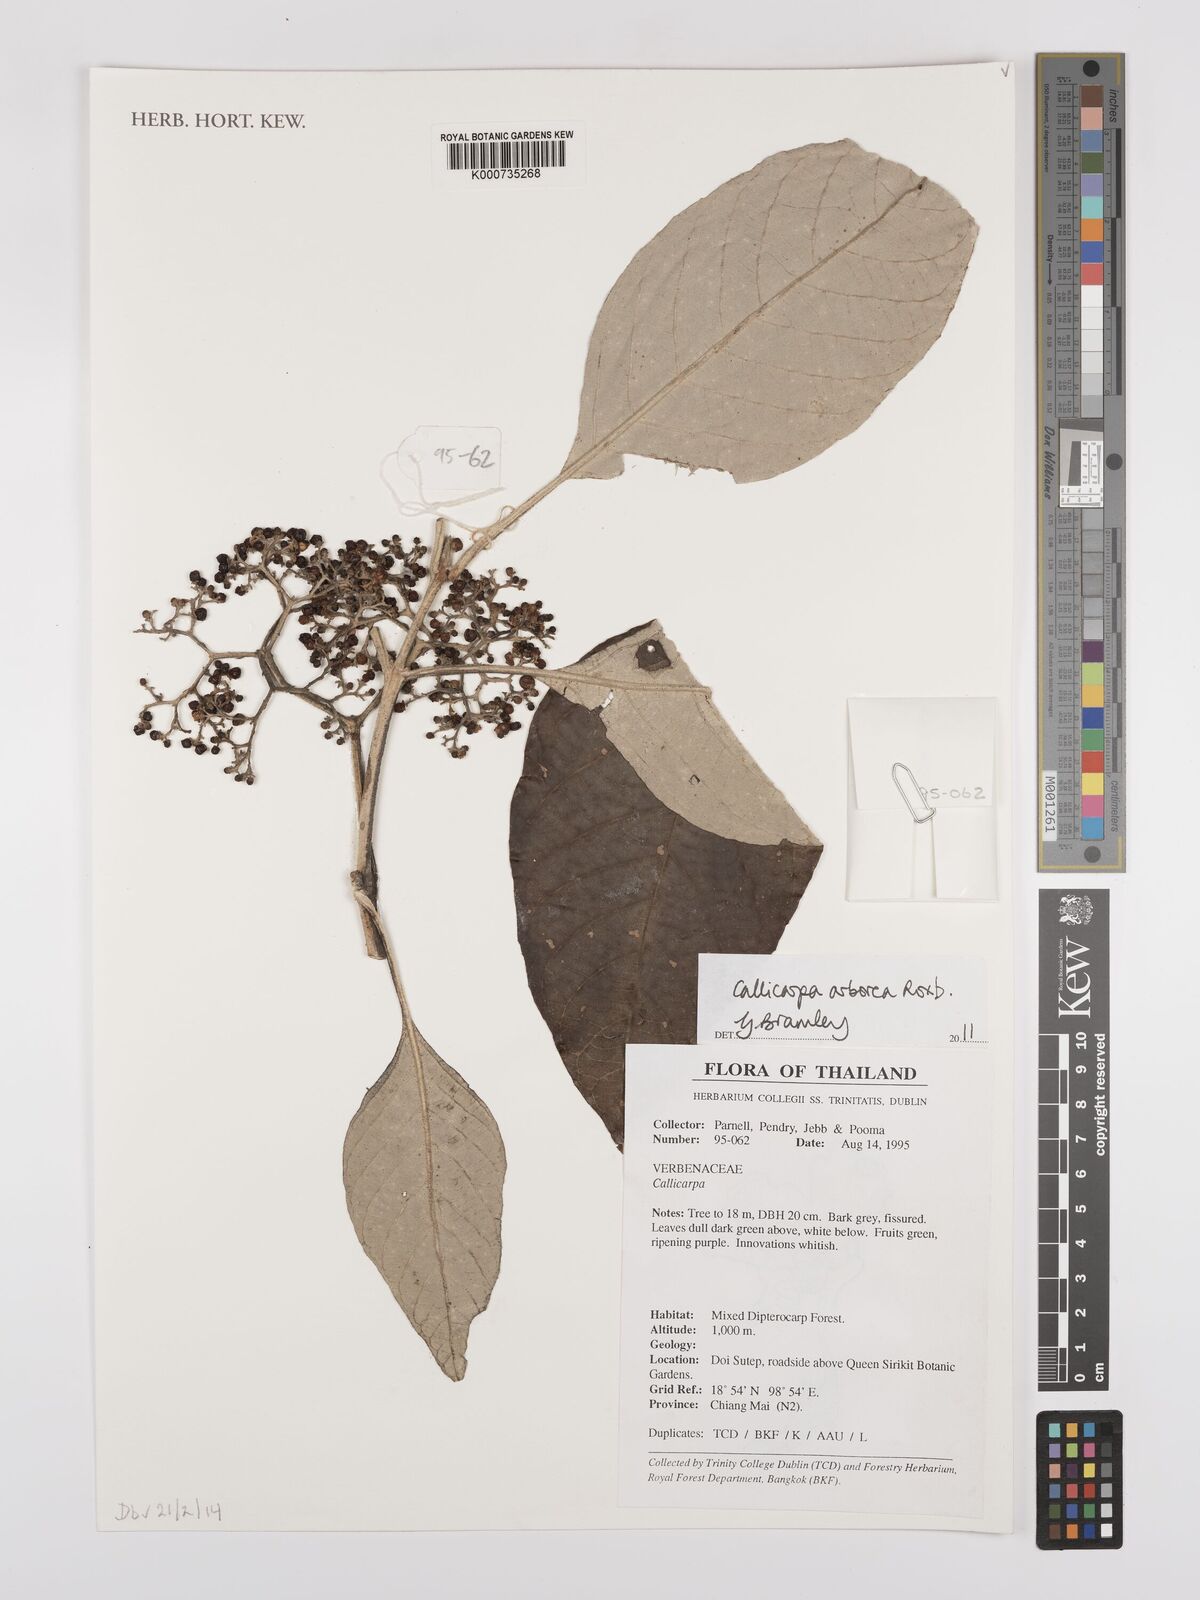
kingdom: Plantae
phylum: Tracheophyta
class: Magnoliopsida
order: Lamiales
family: Lamiaceae
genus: Callicarpa
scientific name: Callicarpa arborea
